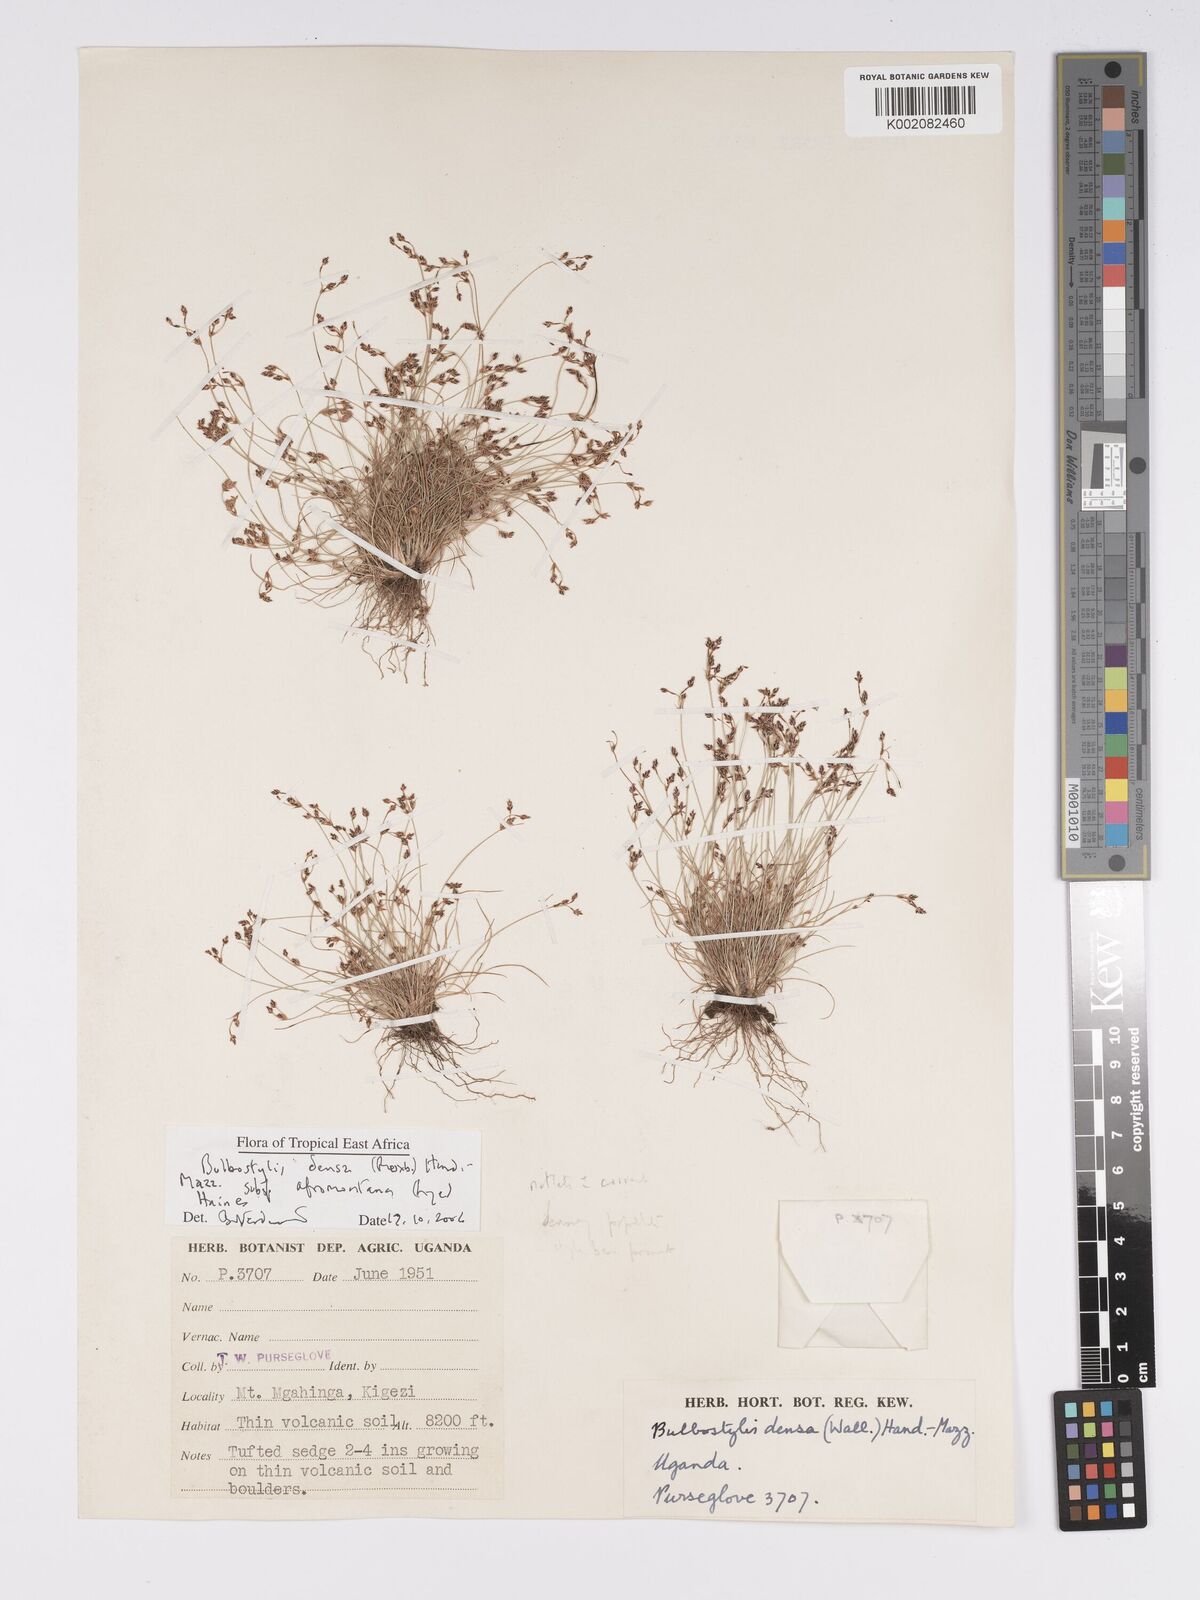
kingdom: Plantae
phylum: Tracheophyta
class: Liliopsida
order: Poales
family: Cyperaceae
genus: Bulbostylis
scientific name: Bulbostylis densa
